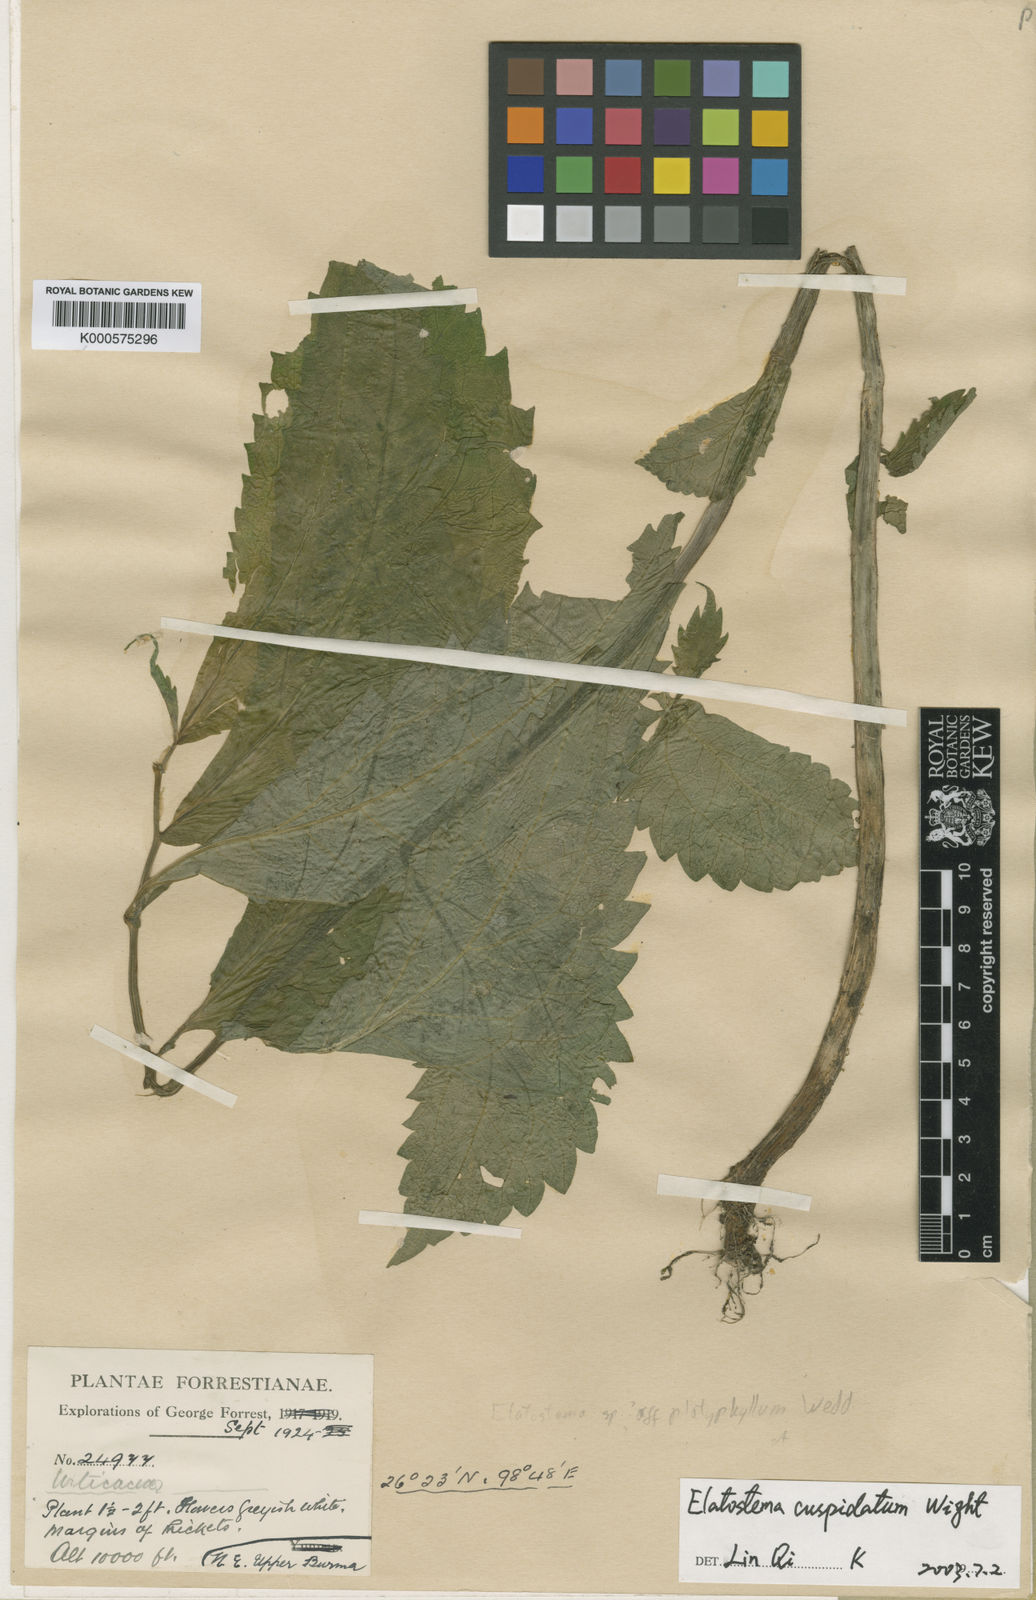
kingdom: Plantae
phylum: Tracheophyta
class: Magnoliopsida
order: Rosales
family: Urticaceae
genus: Elatostema
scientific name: Elatostema cuspidatum
